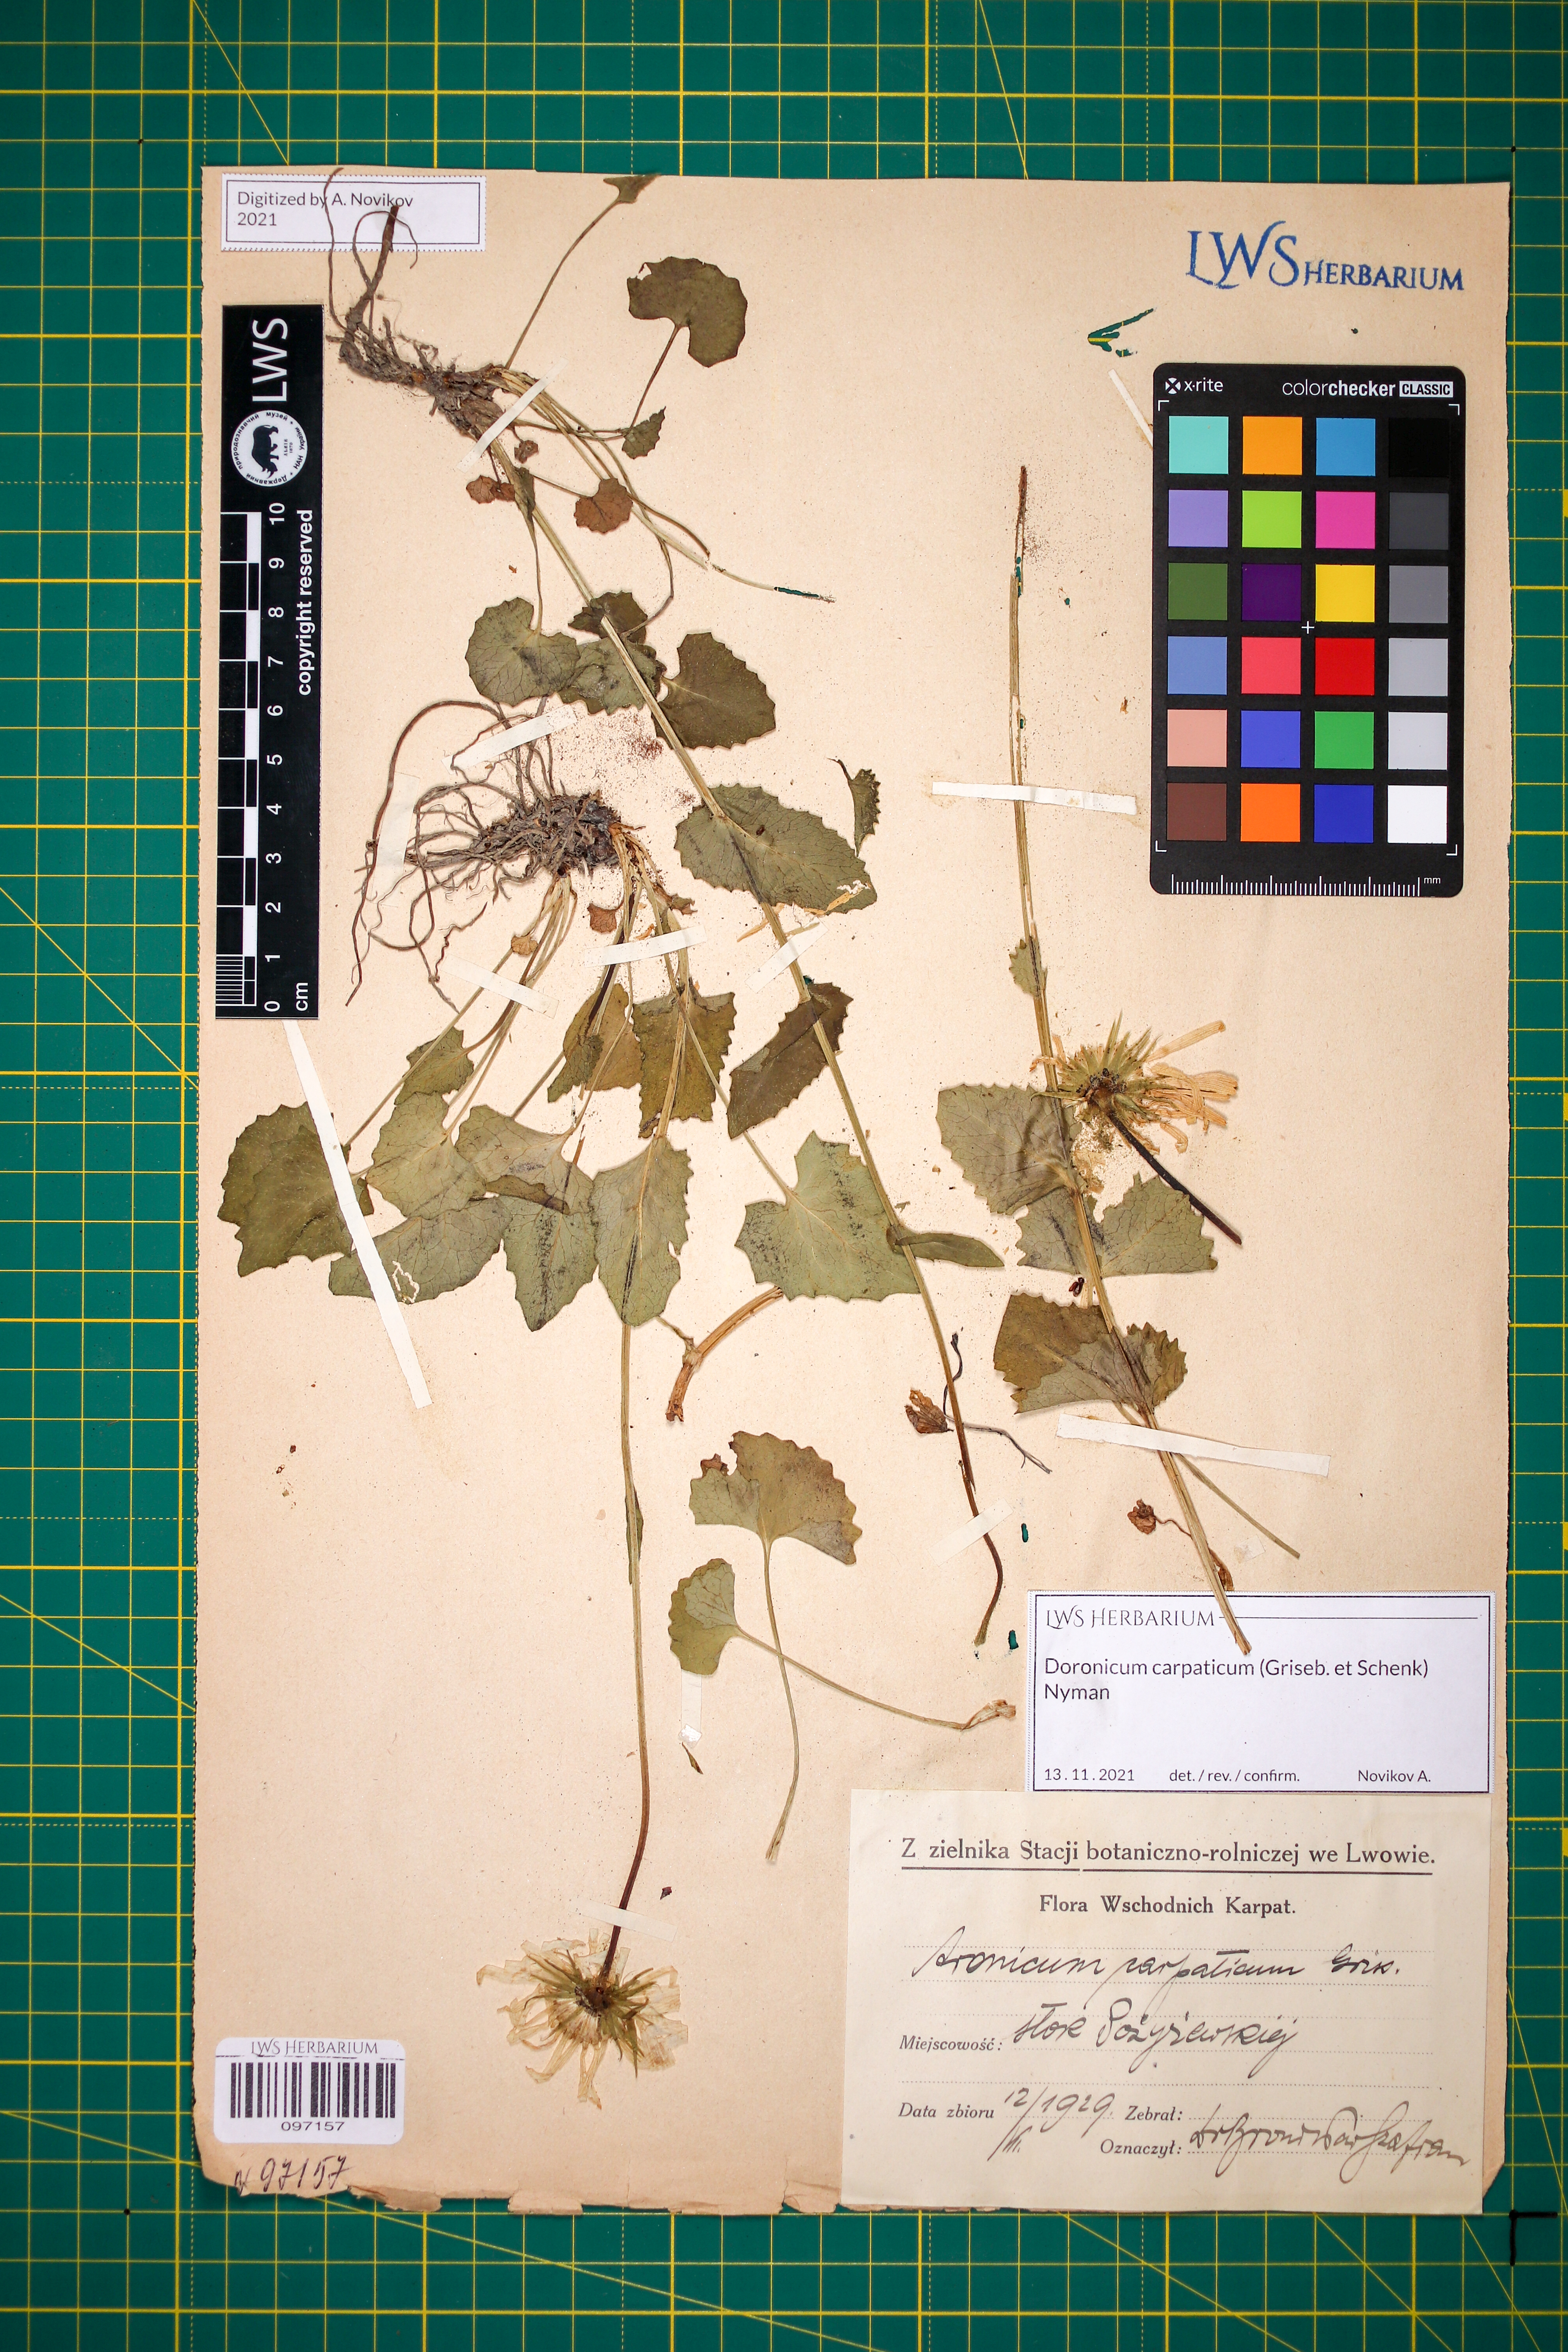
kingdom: Plantae
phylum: Tracheophyta
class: Magnoliopsida
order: Asterales
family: Asteraceae
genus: Doronicum
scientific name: Doronicum carpaticum
